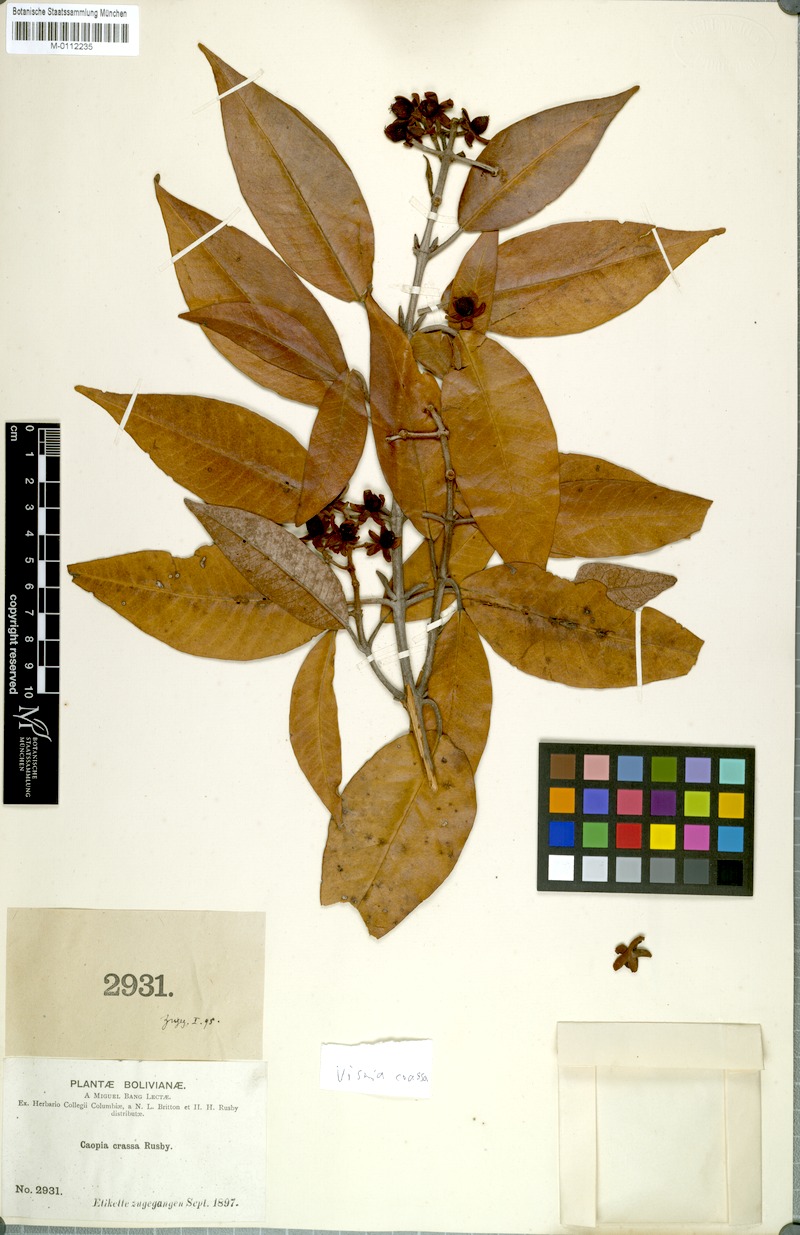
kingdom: Plantae
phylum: Tracheophyta
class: Magnoliopsida
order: Malpighiales
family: Hypericaceae
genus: Vismia
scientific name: Vismia crassa
